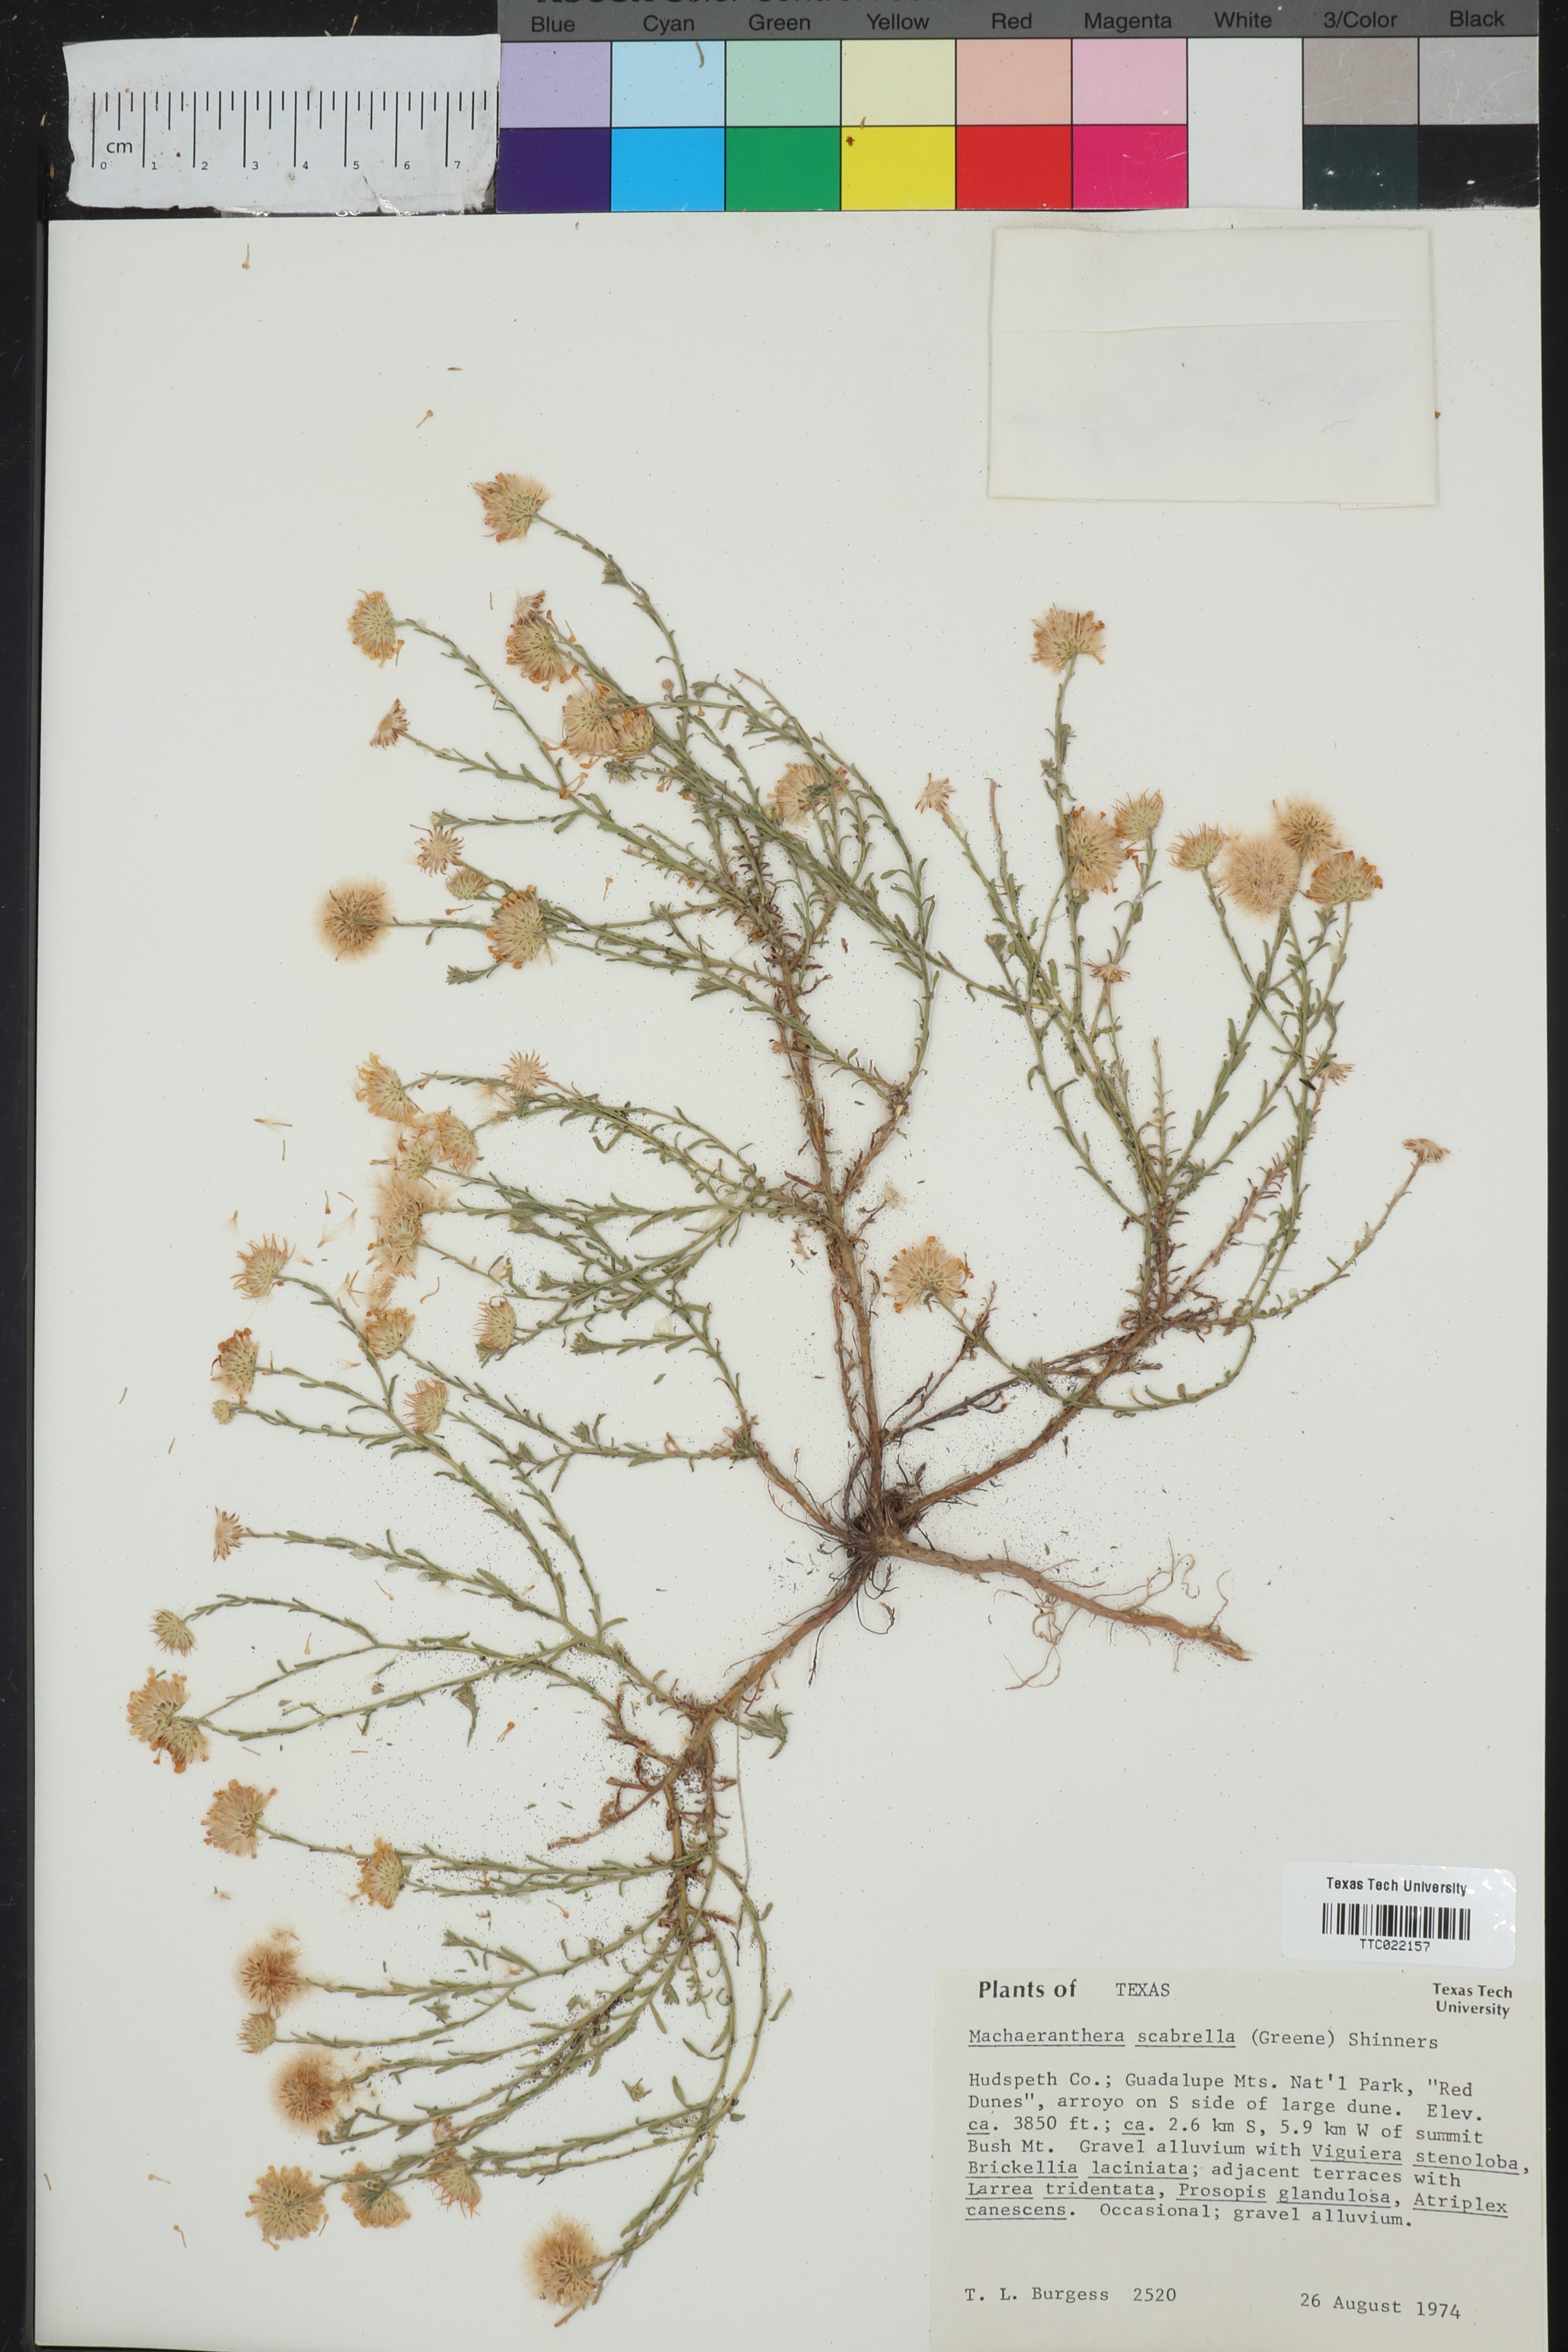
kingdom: Plantae
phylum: Tracheophyta
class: Magnoliopsida
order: Asterales
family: Asteraceae
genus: Xanthisma
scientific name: Xanthisma scabrellum
